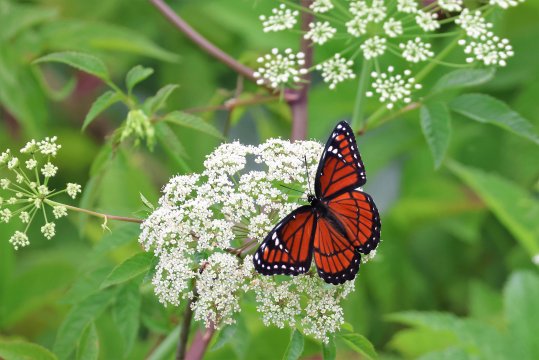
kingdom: Animalia
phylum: Arthropoda
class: Insecta
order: Lepidoptera
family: Nymphalidae
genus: Limenitis
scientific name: Limenitis archippus
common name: Viceroy
